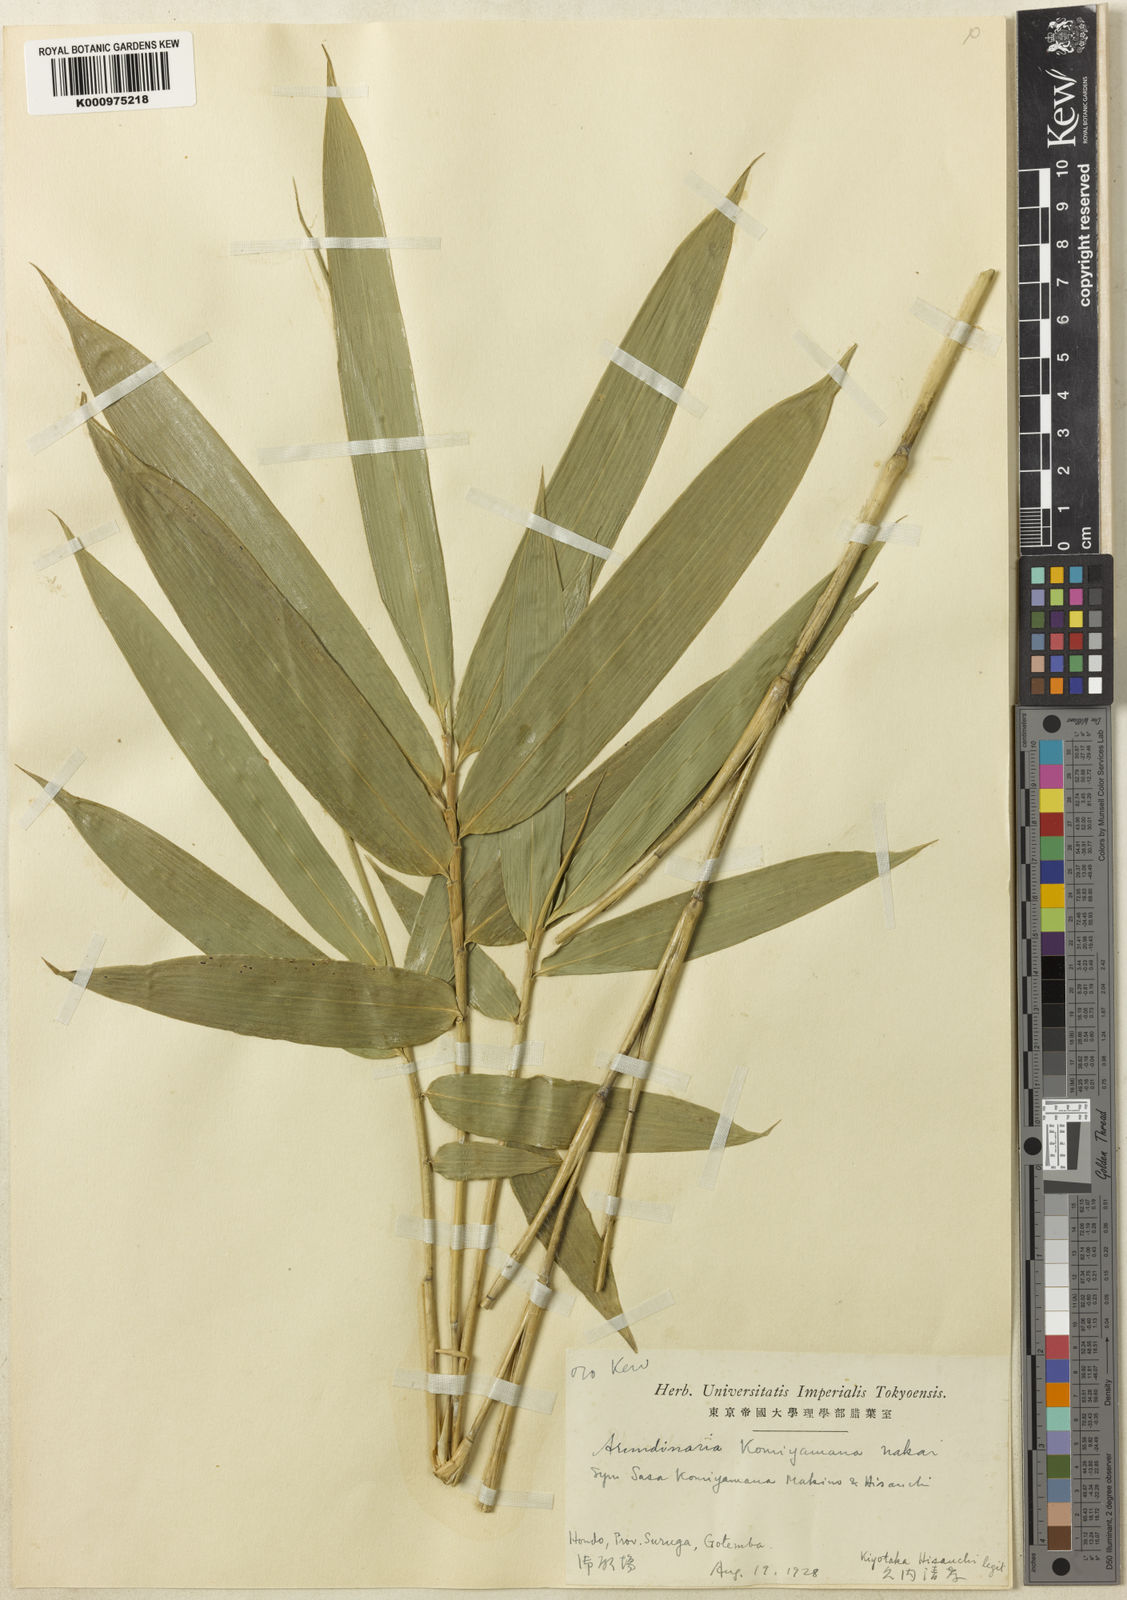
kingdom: Plantae
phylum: Tracheophyta
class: Liliopsida
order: Poales
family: Poaceae
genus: Sasaella
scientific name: Sasaella ramosa
